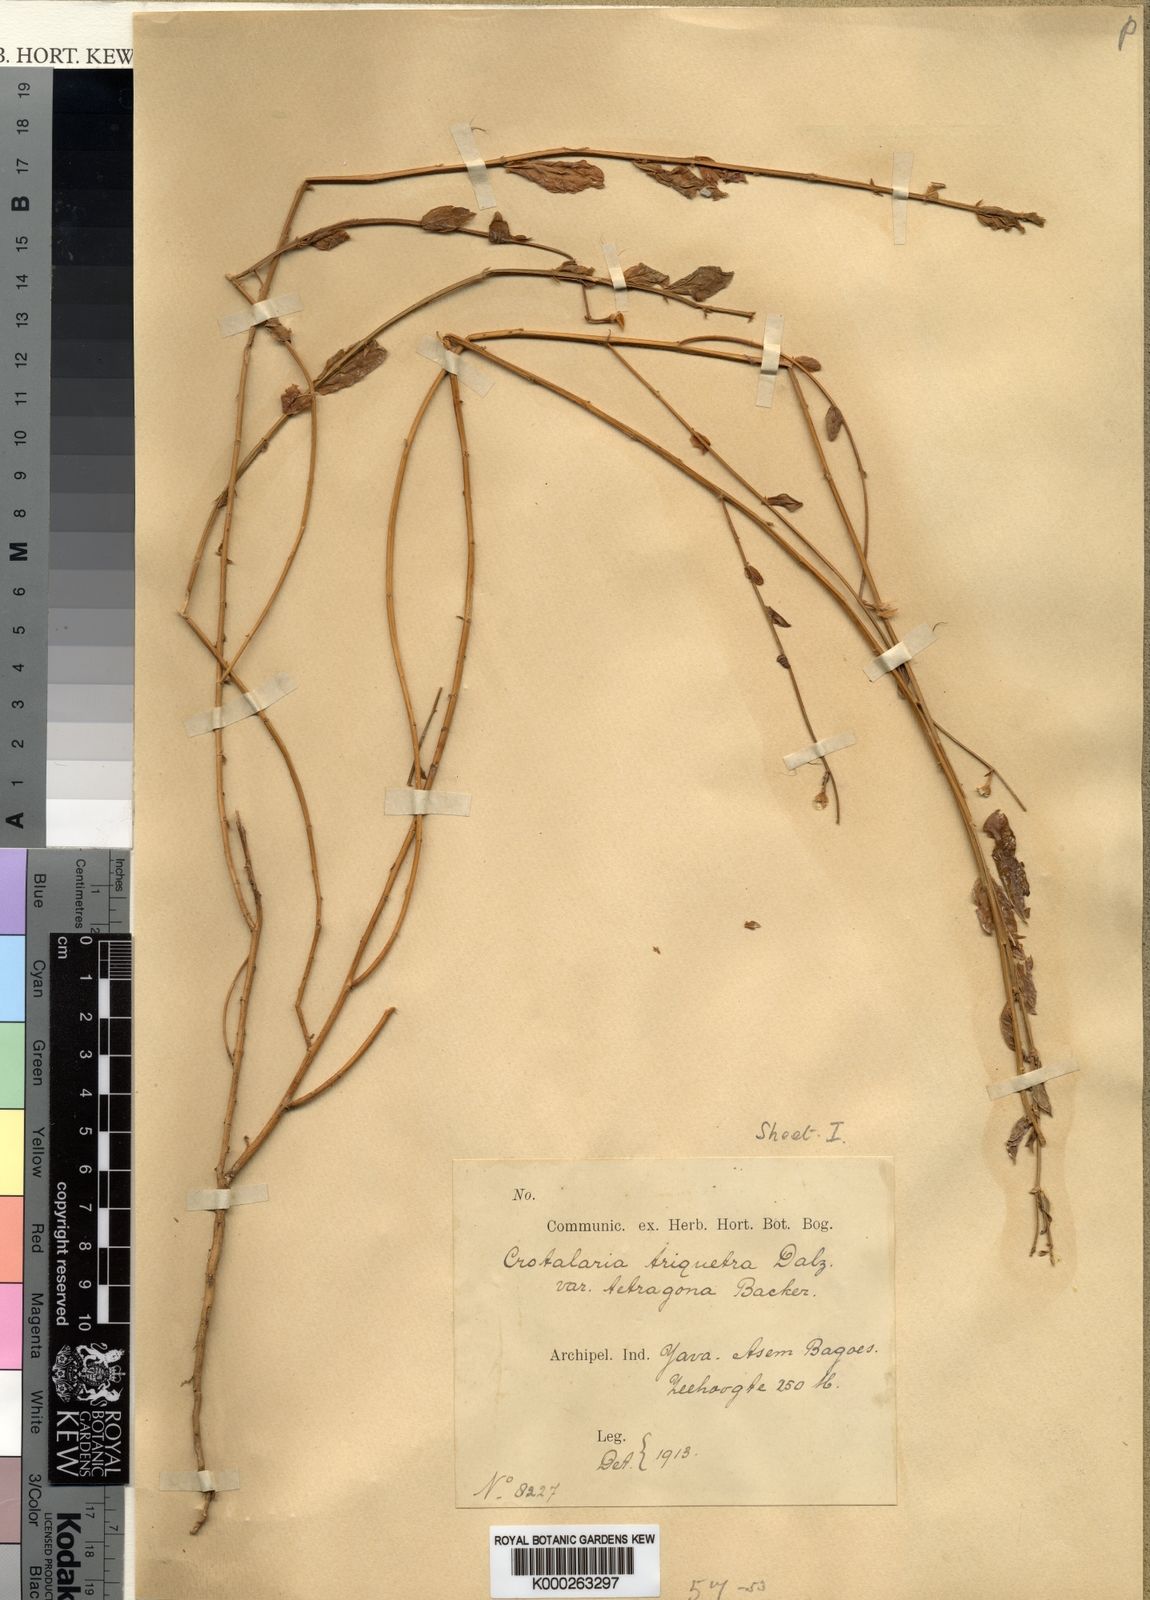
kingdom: Plantae
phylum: Tracheophyta
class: Magnoliopsida
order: Fabales
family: Fabaceae
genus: Crotalaria
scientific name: Crotalaria triquetra
